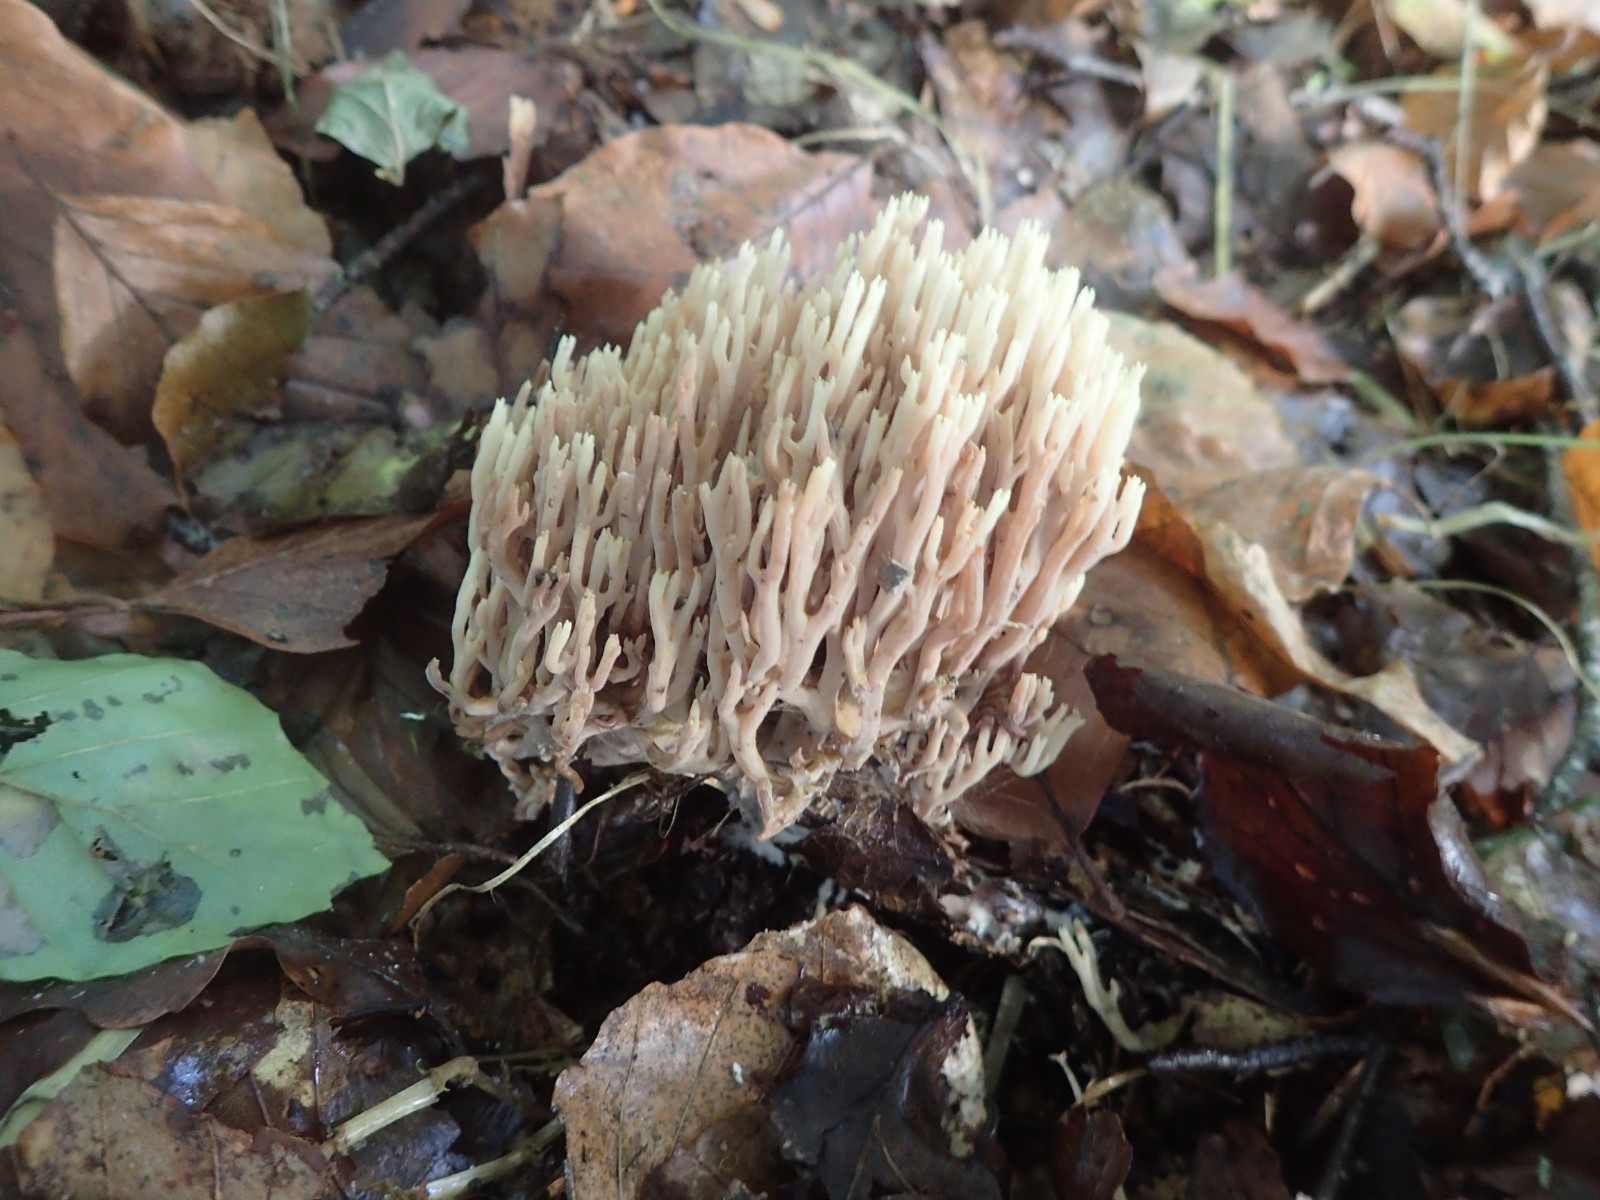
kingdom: Fungi
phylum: Basidiomycota
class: Agaricomycetes
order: Gomphales
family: Gomphaceae
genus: Ramaria
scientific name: Ramaria stricta
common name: rank koralsvamp
